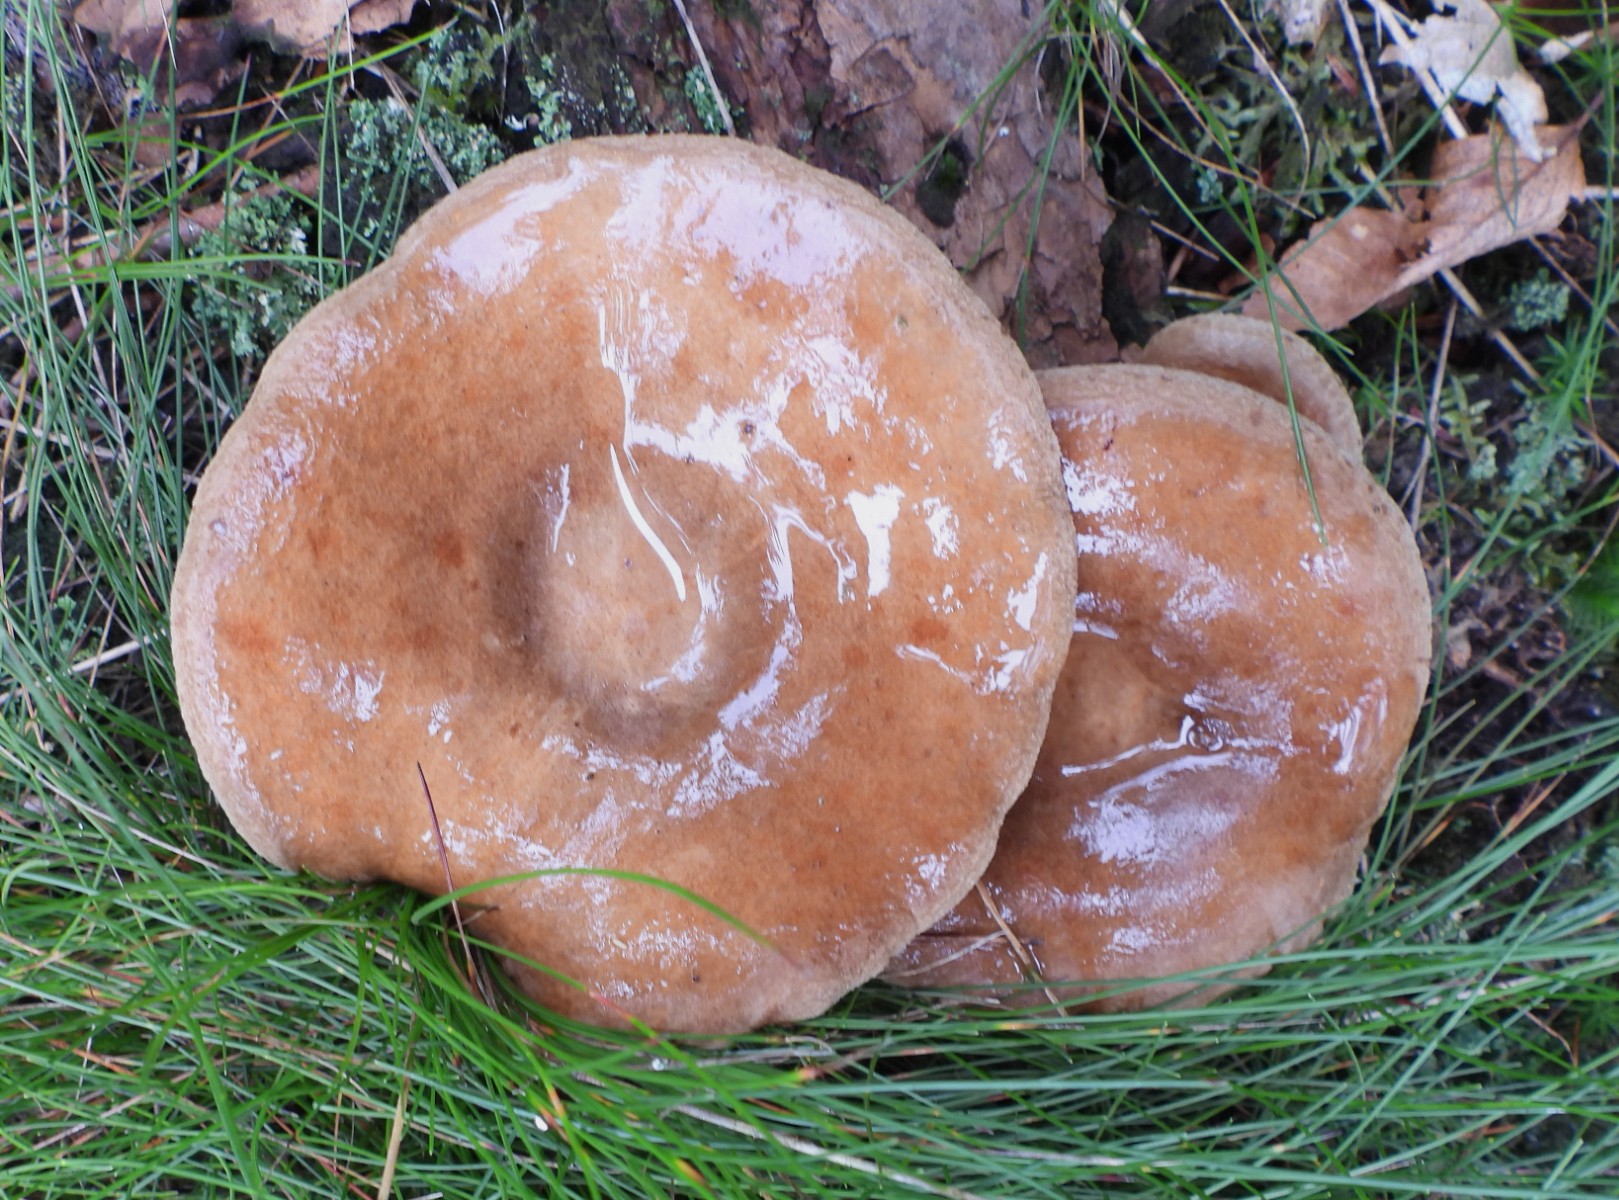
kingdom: Fungi
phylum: Basidiomycota
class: Agaricomycetes
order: Boletales
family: Paxillaceae
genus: Paxillus
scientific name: Paxillus
